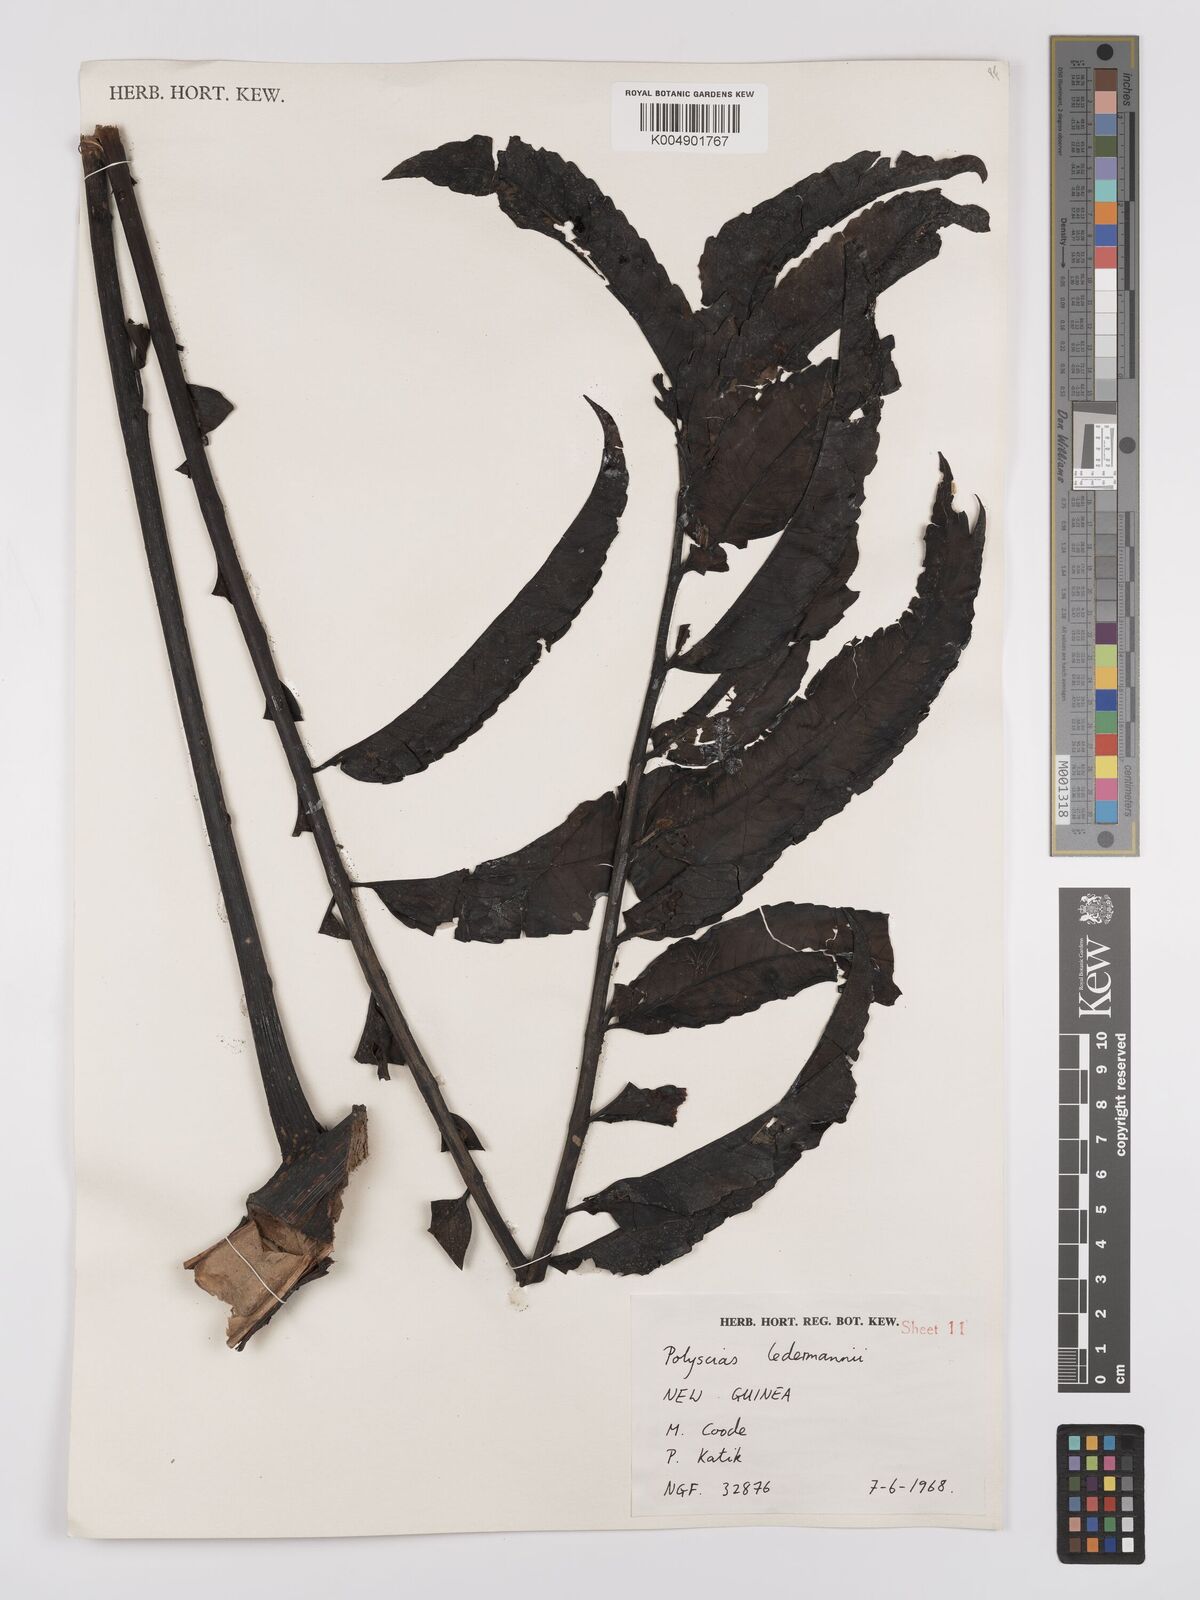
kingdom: Plantae
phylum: Tracheophyta
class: Magnoliopsida
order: Apiales
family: Araliaceae
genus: Polyscias
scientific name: Polyscias ledermannii
